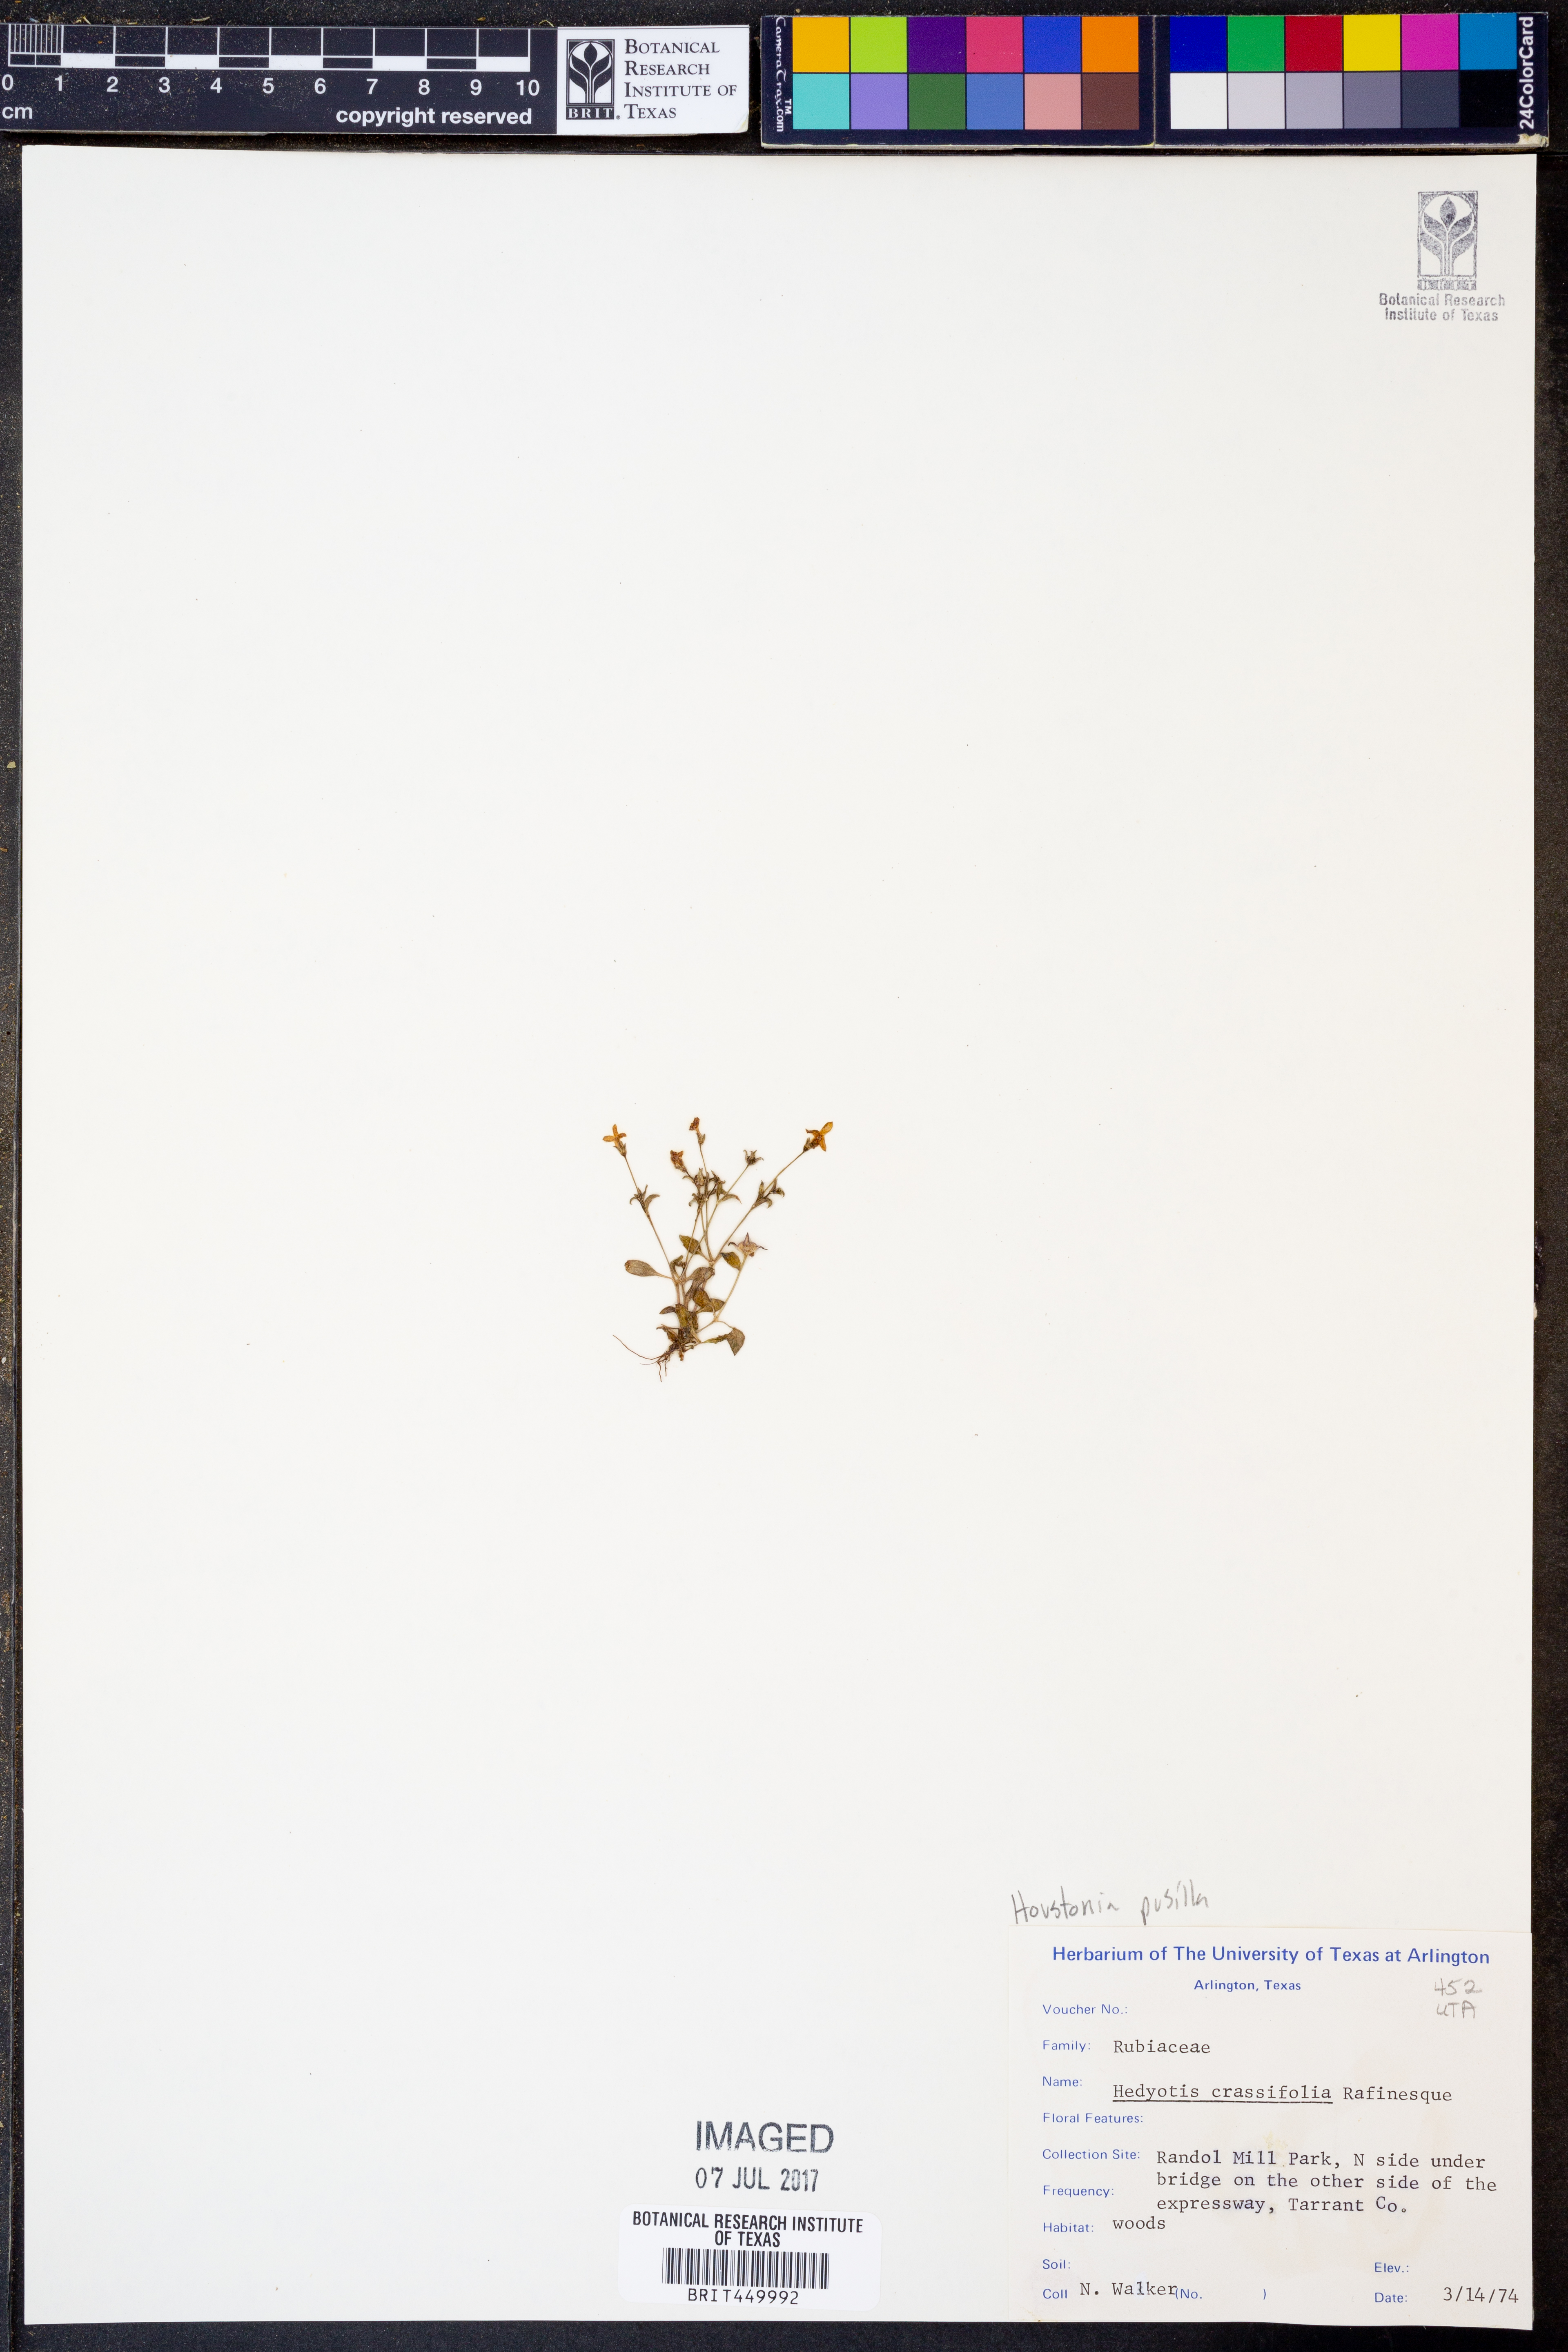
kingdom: Plantae
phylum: Tracheophyta
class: Magnoliopsida
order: Gentianales
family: Rubiaceae
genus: Oldenlandia
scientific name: Oldenlandia corymbosa
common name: Flat-top mille graines
